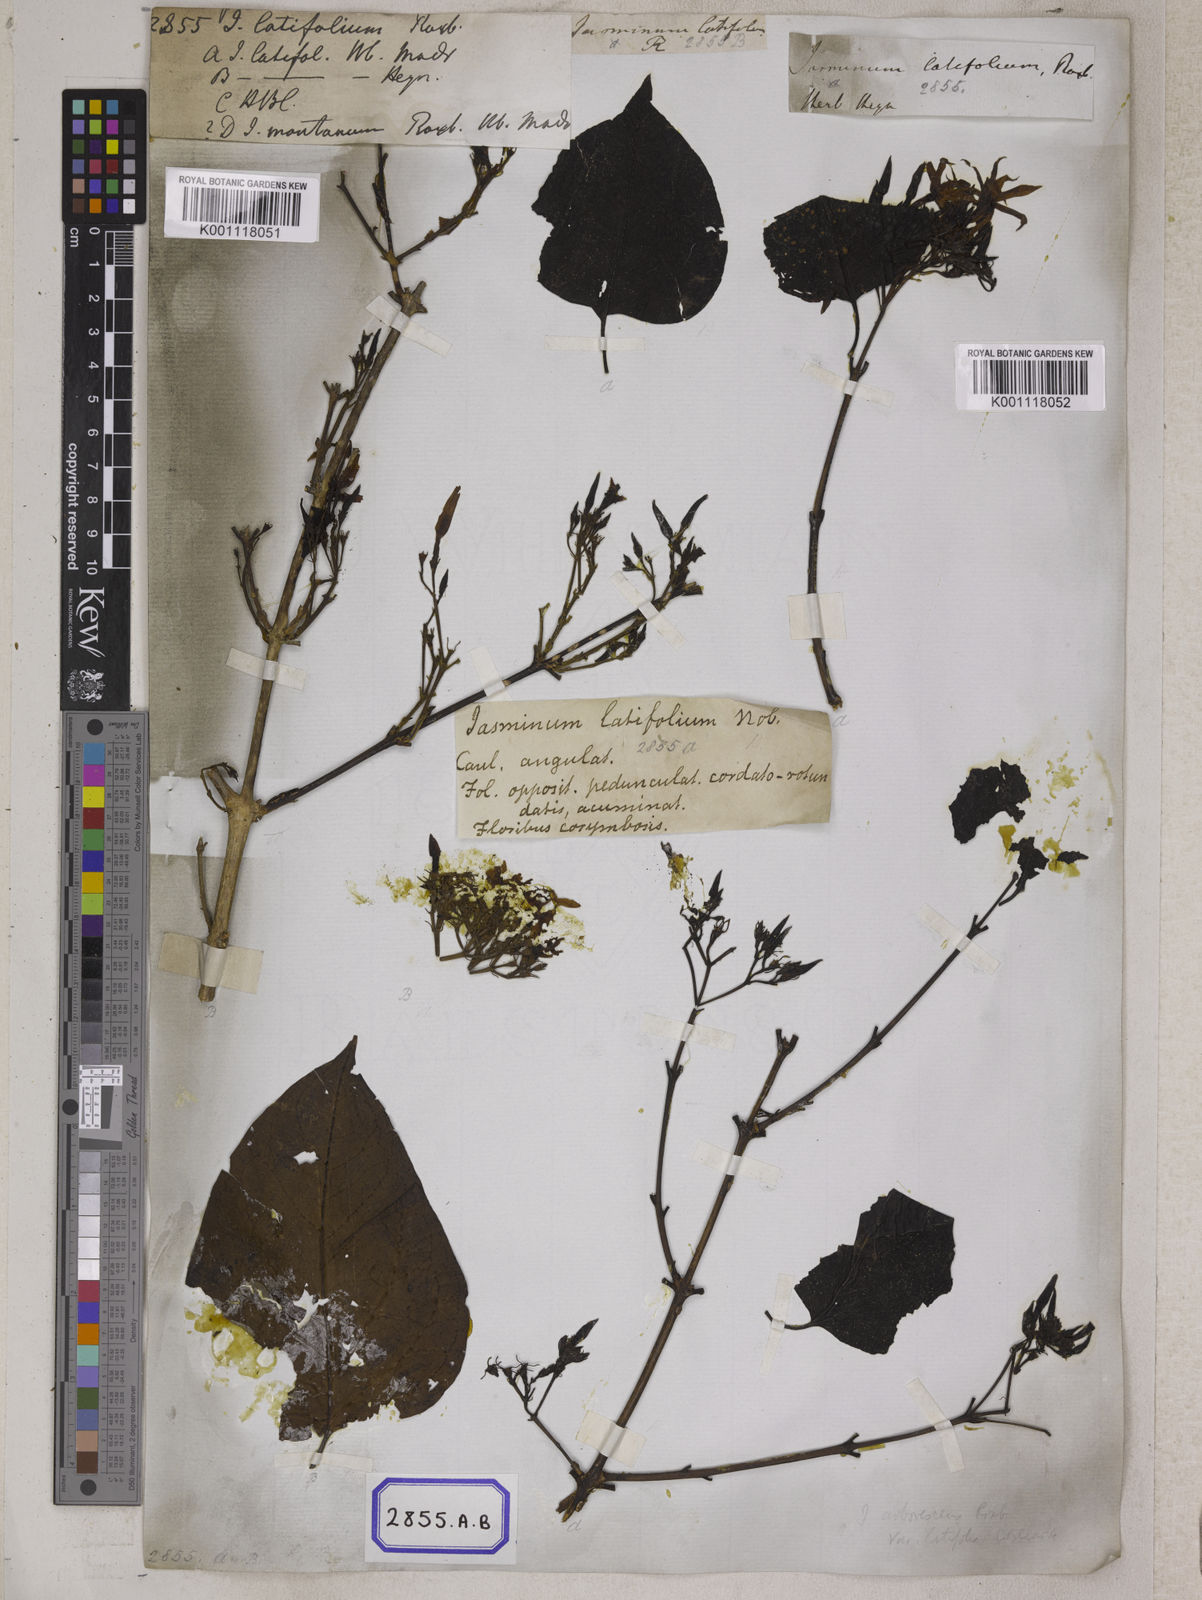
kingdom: Plantae
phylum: Tracheophyta
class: Magnoliopsida
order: Lamiales
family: Oleaceae
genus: Jasminum
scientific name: Jasminum arborescens
